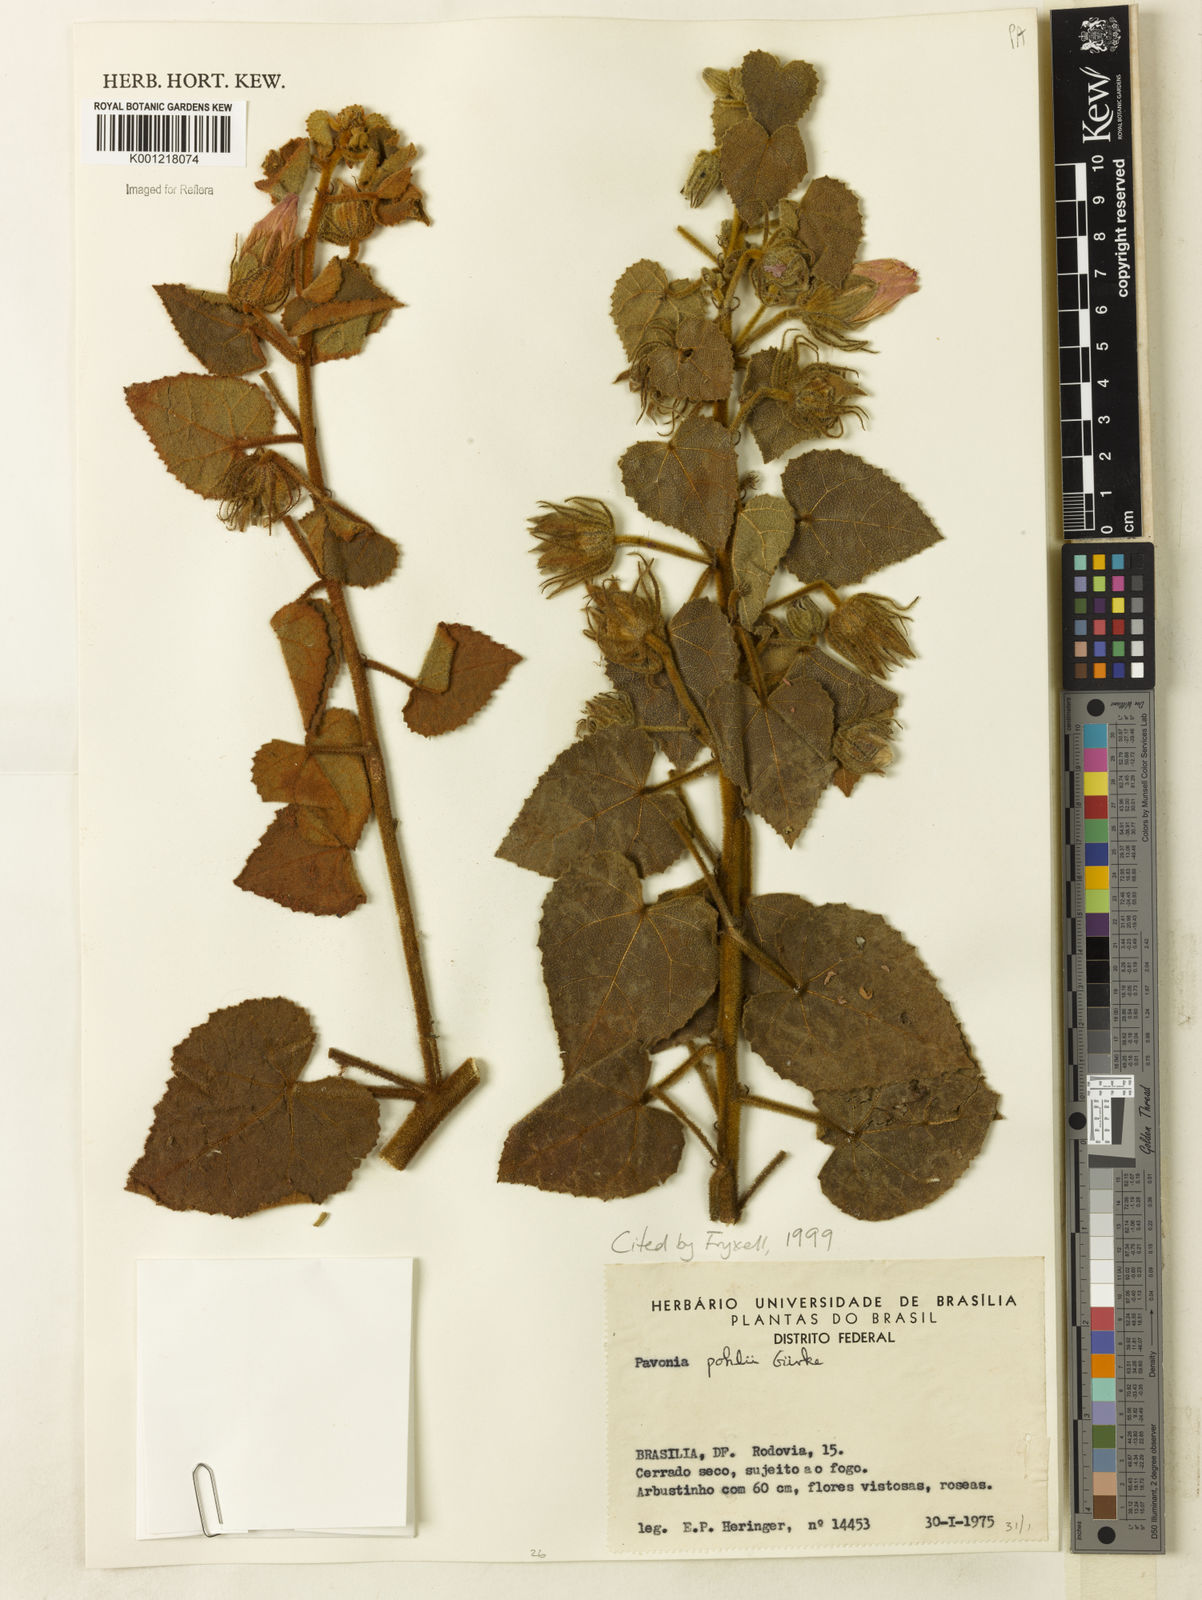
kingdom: Plantae
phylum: Tracheophyta
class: Magnoliopsida
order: Malvales
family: Malvaceae
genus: Pavonia
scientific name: Pavonia
